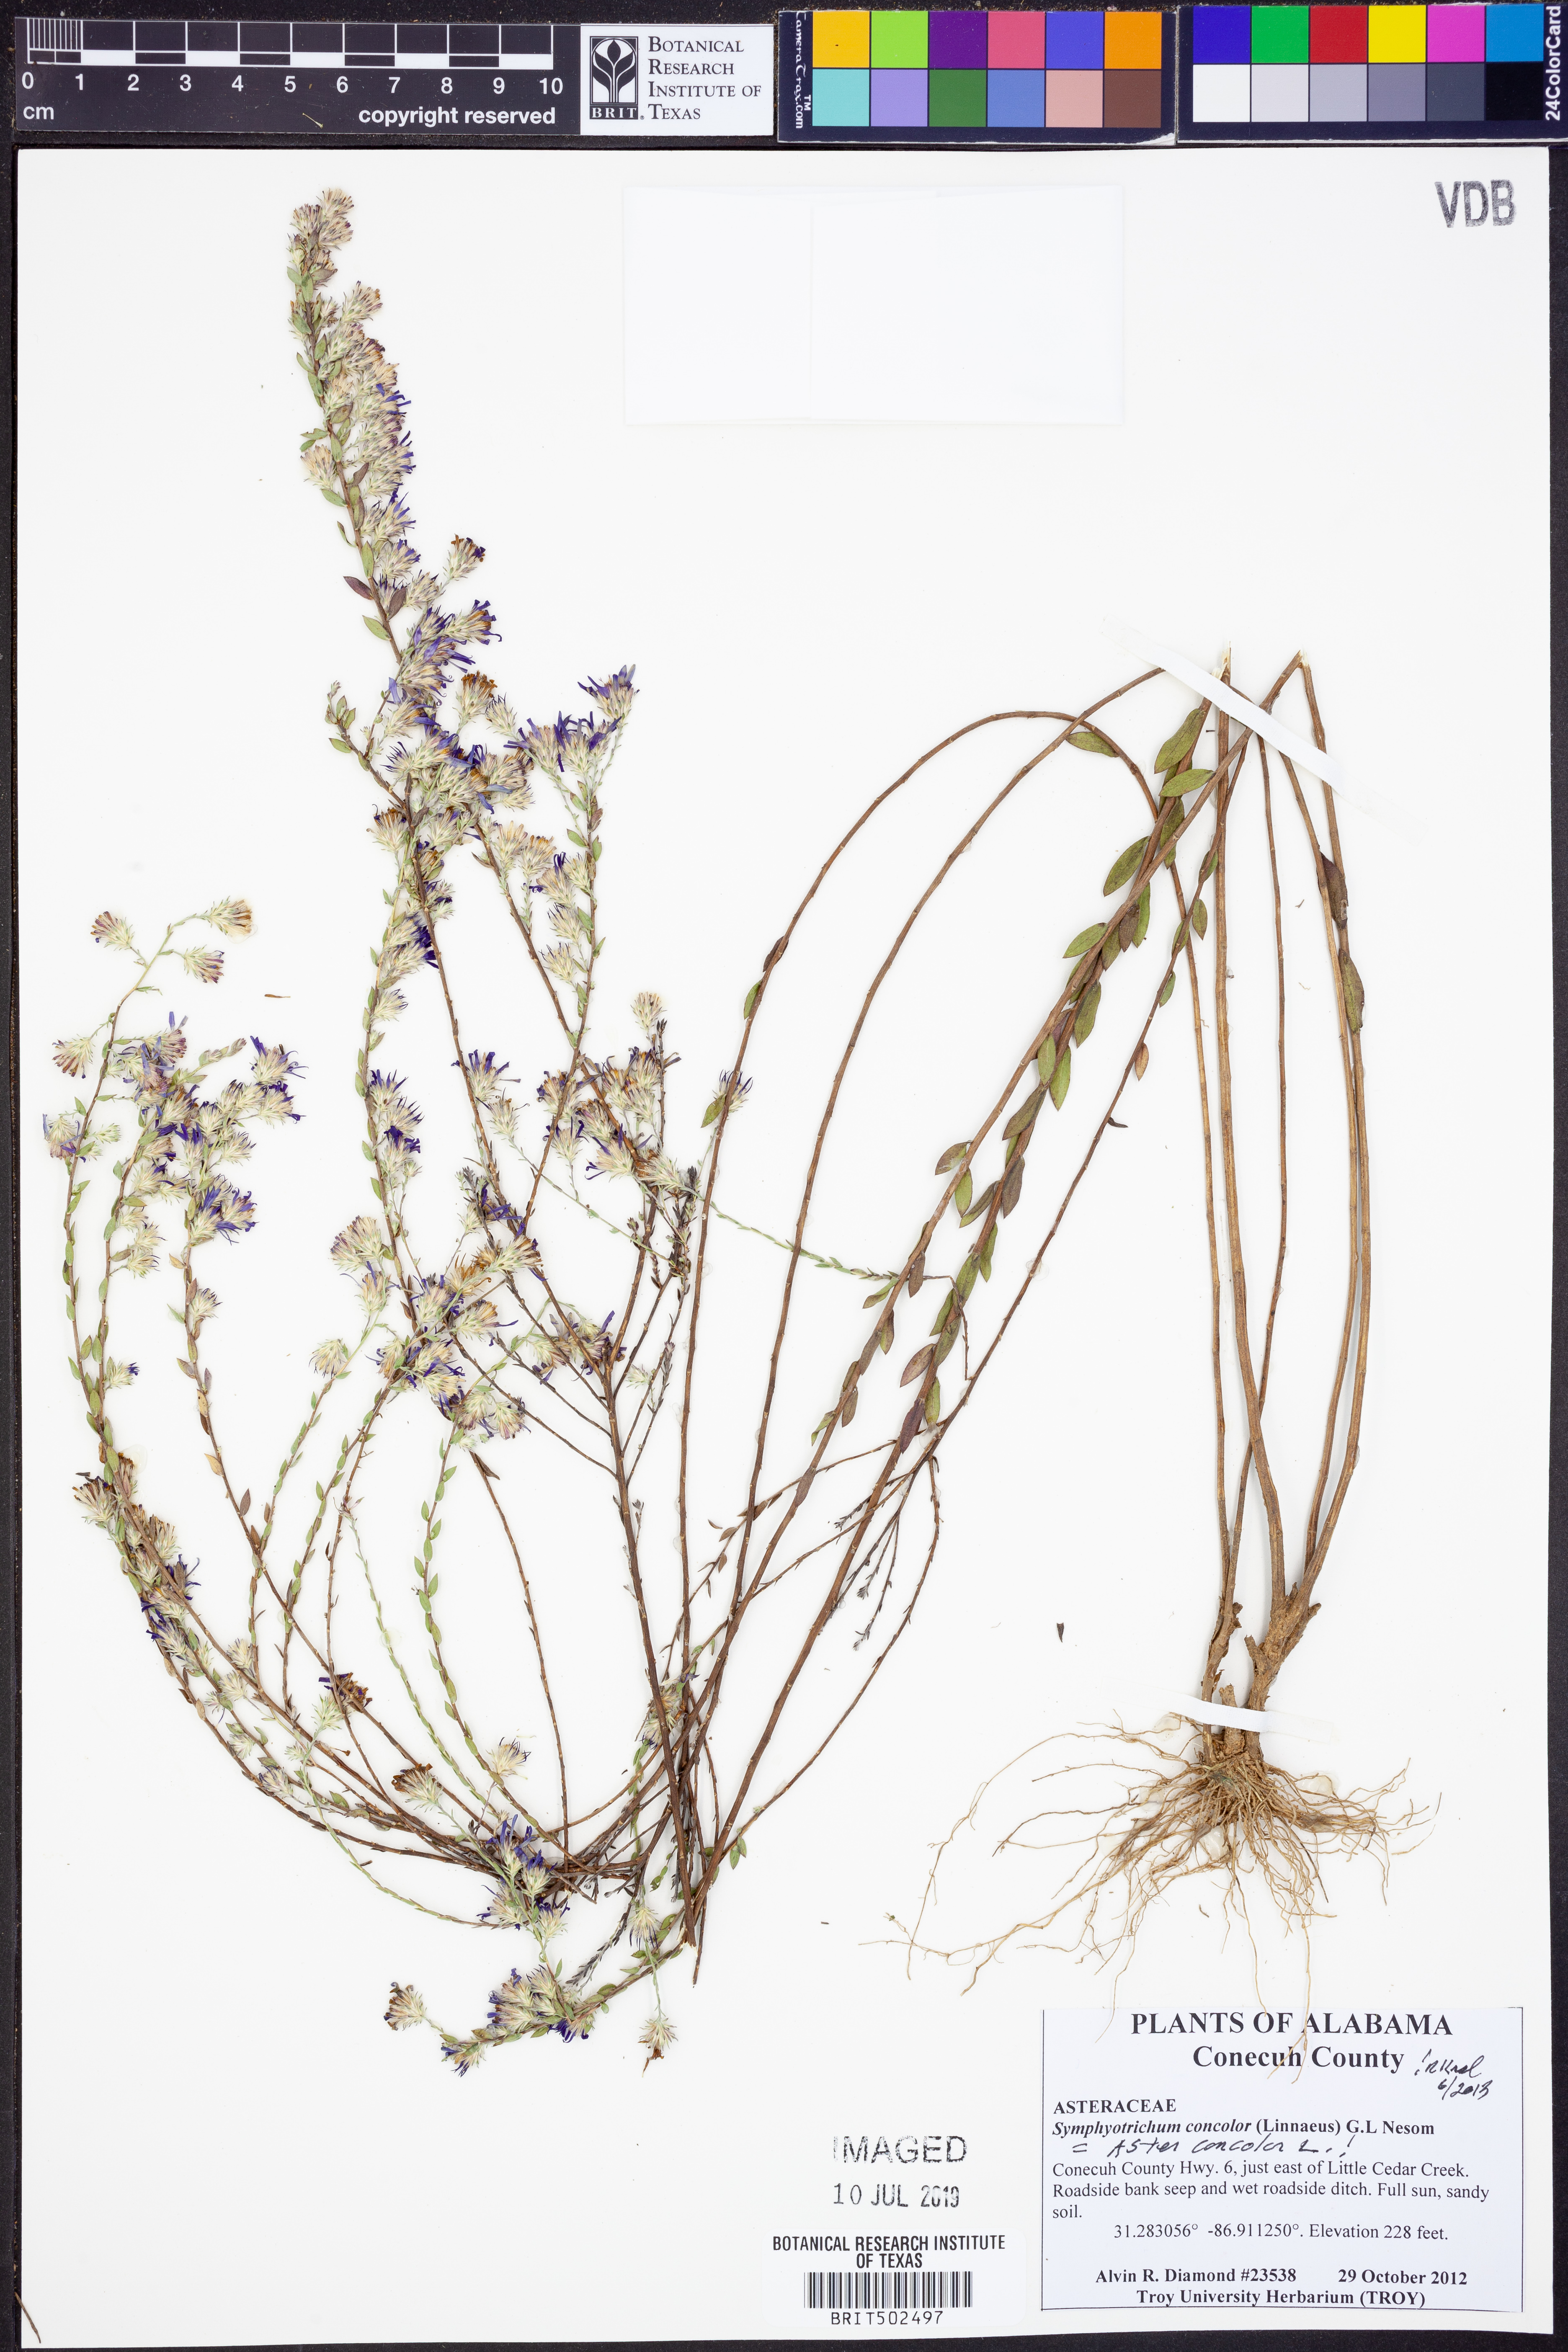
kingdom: Plantae
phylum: Tracheophyta
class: Magnoliopsida
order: Asterales
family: Asteraceae
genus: Symphyotrichum
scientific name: Symphyotrichum concolor
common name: Eastern silver aster
